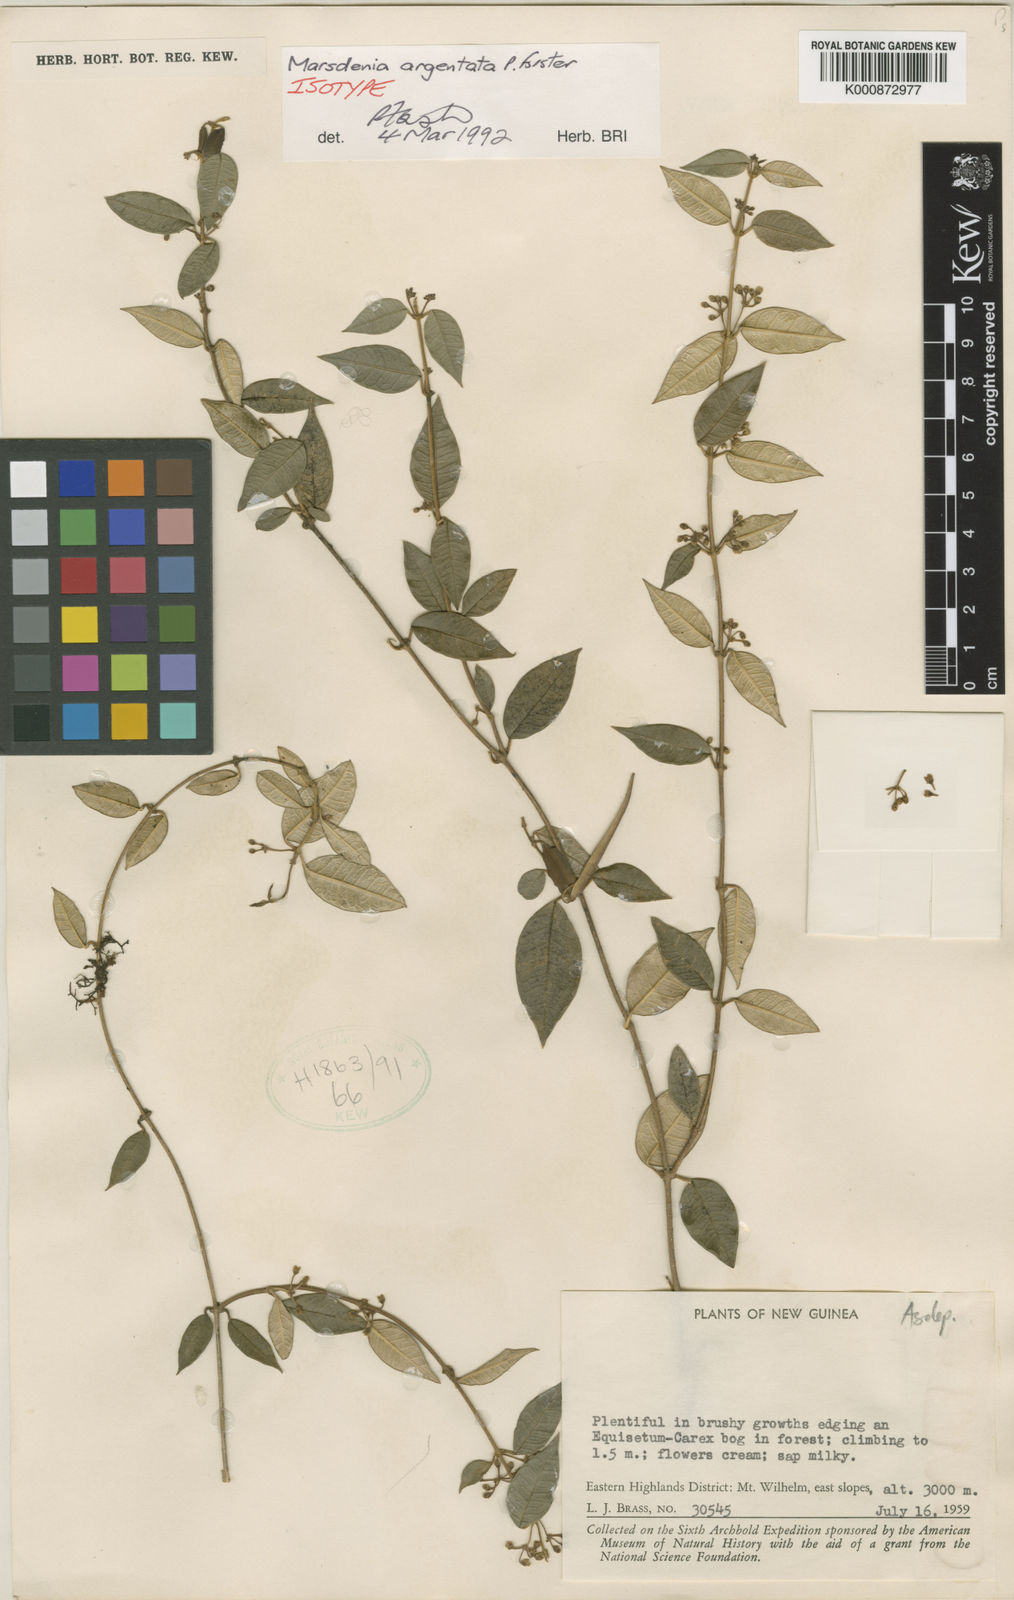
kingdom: Plantae
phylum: Tracheophyta
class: Magnoliopsida
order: Gentianales
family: Apocynaceae
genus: Leichhardtia
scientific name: Leichhardtia papuana
